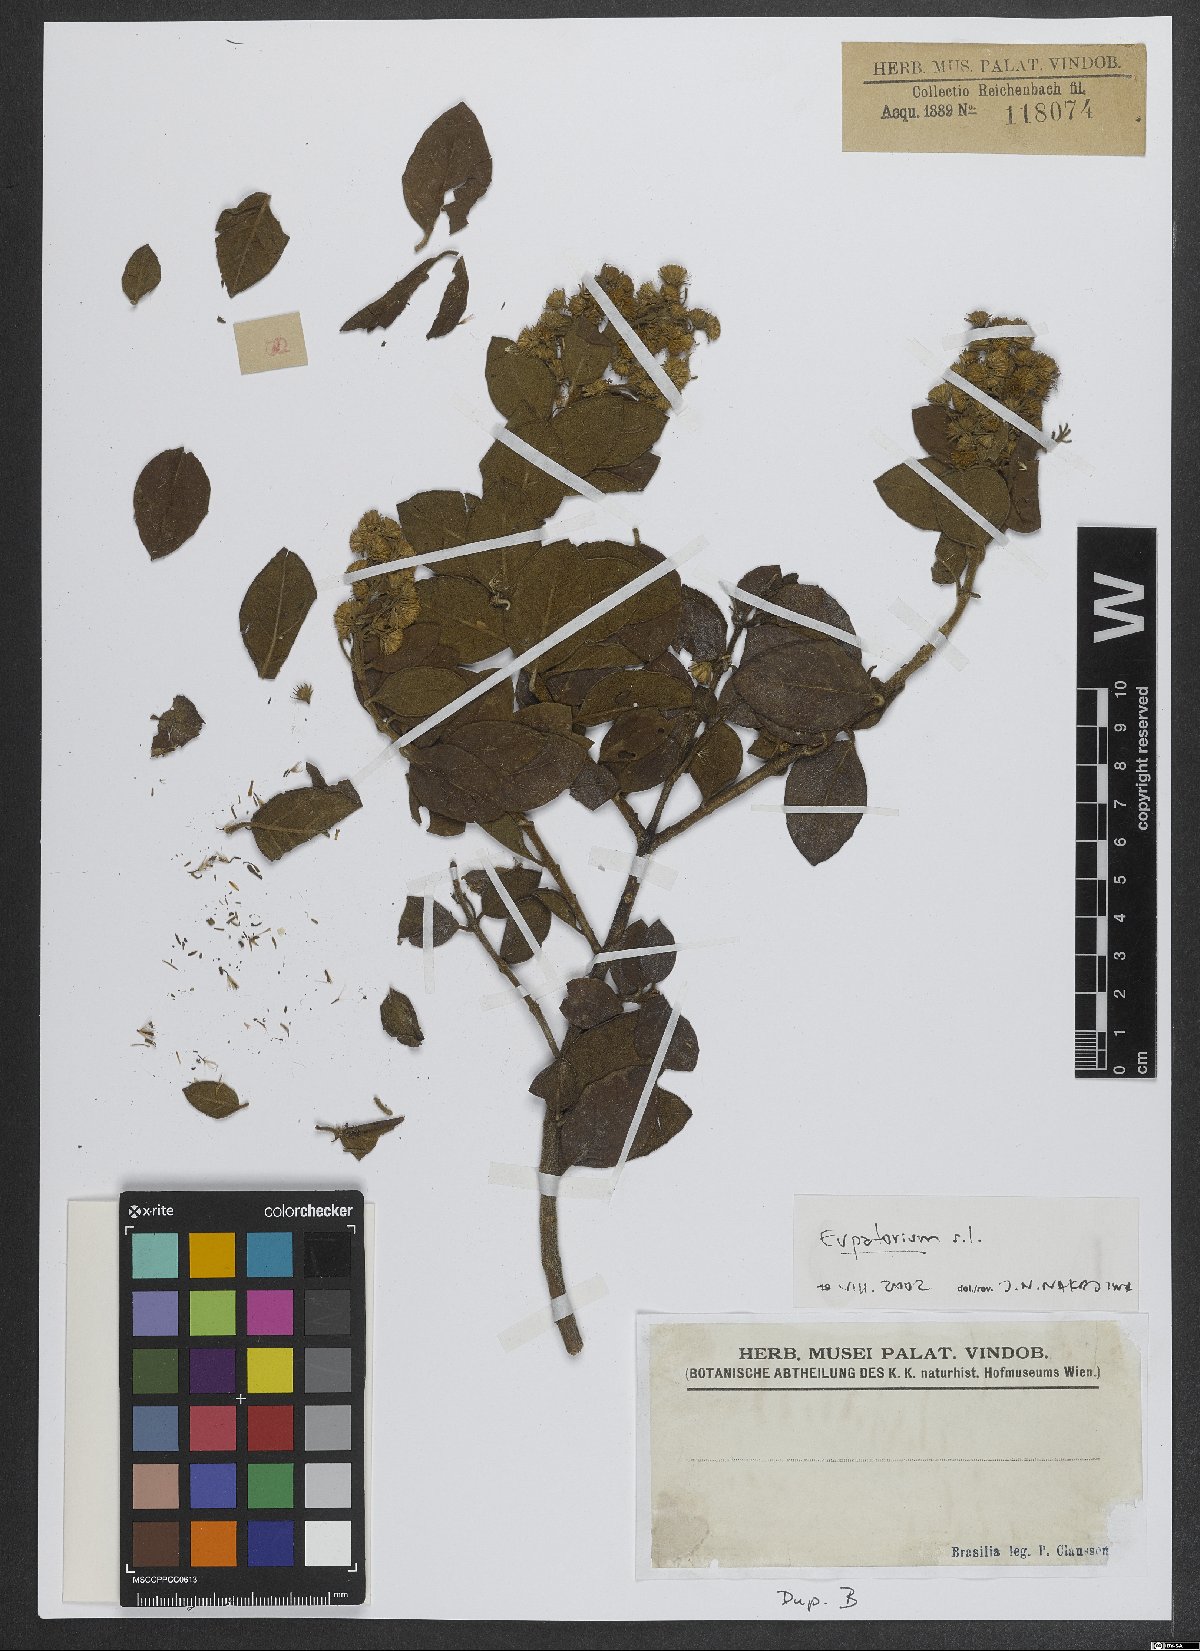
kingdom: Plantae
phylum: Tracheophyta
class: Magnoliopsida
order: Asterales
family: Asteraceae
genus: Eupatorium
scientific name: Eupatorium
